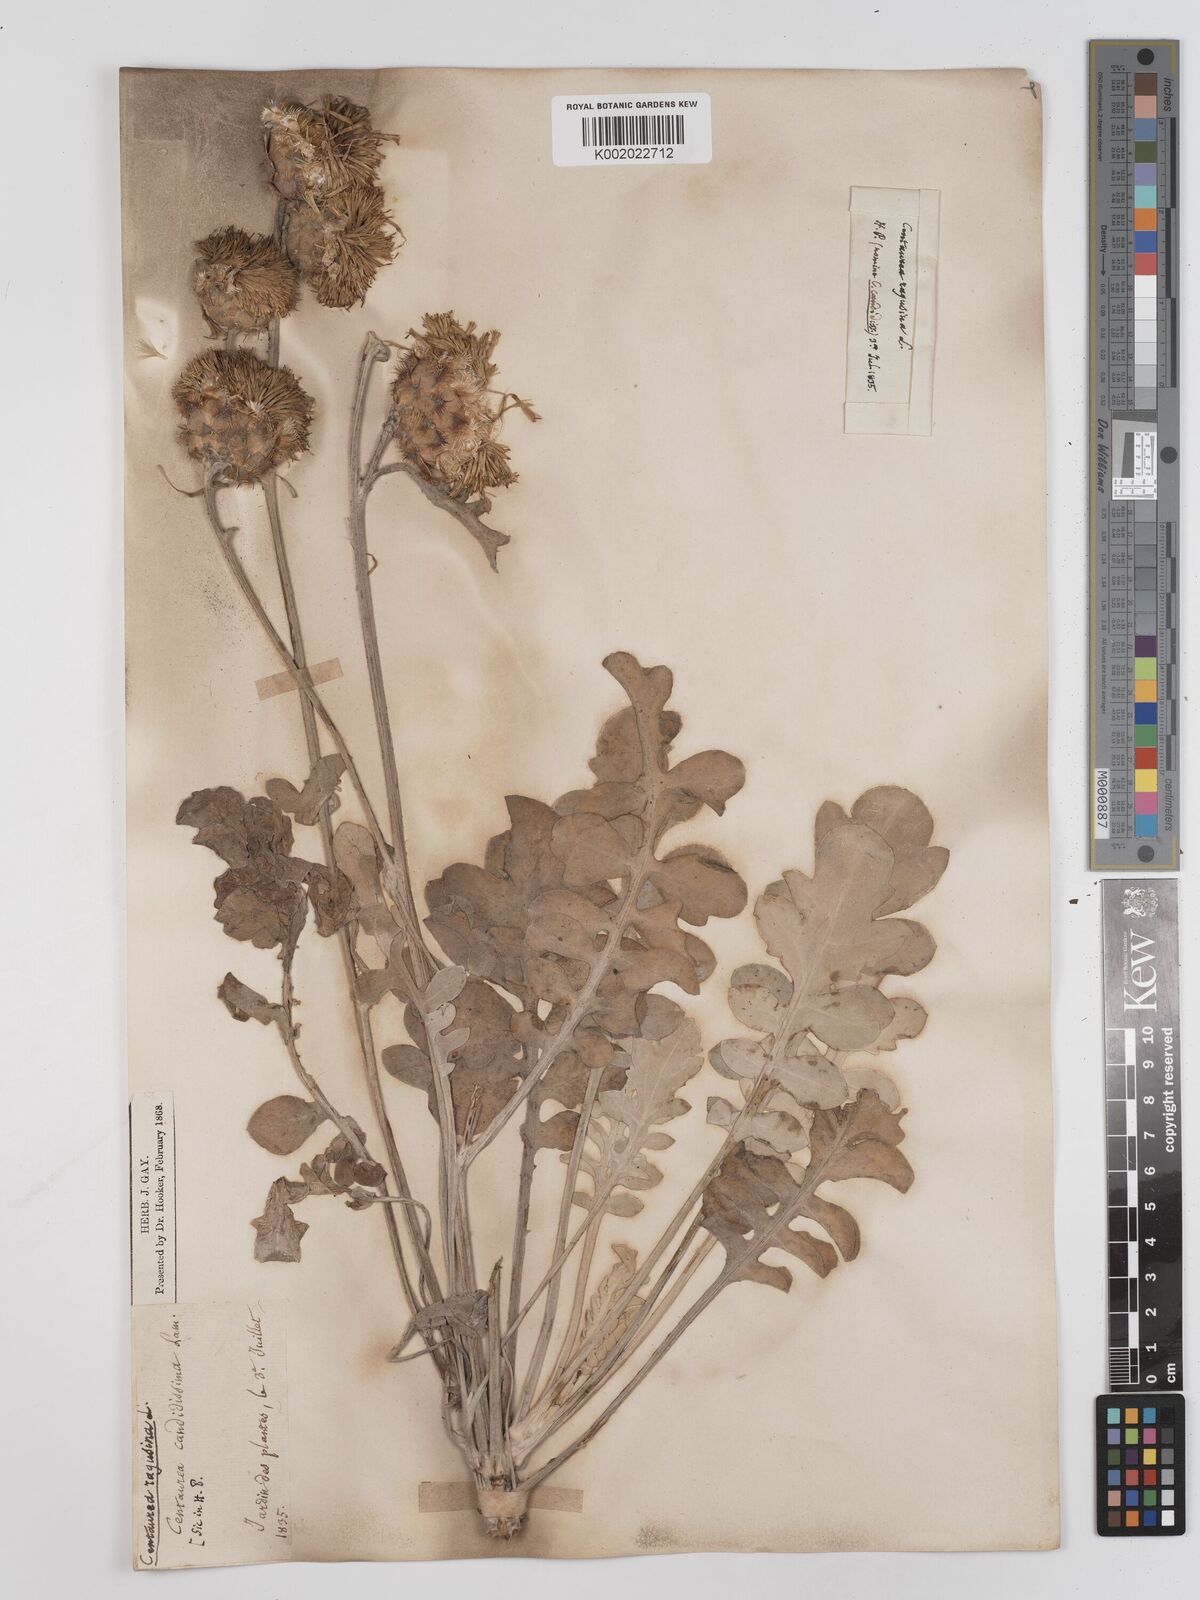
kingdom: Plantae
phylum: Tracheophyta
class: Magnoliopsida
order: Asterales
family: Asteraceae
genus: Centaurea
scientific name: Centaurea ragusina
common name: Dusty-miller
